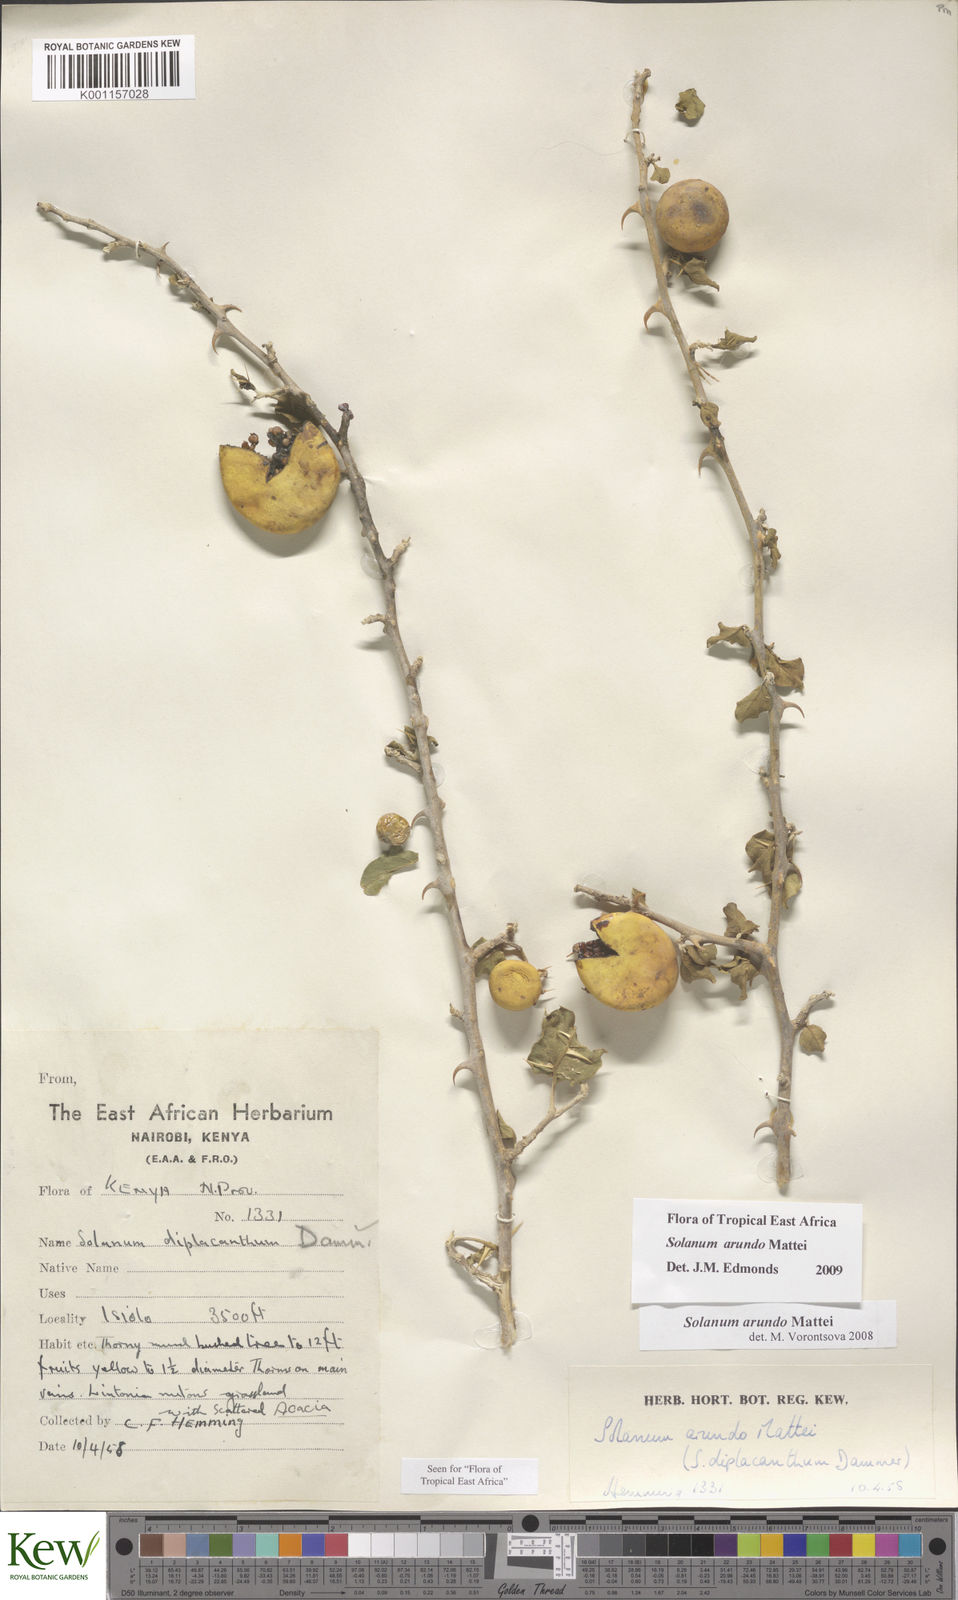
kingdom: Plantae
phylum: Tracheophyta
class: Magnoliopsida
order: Solanales
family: Solanaceae
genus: Solanum
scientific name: Solanum arundo
